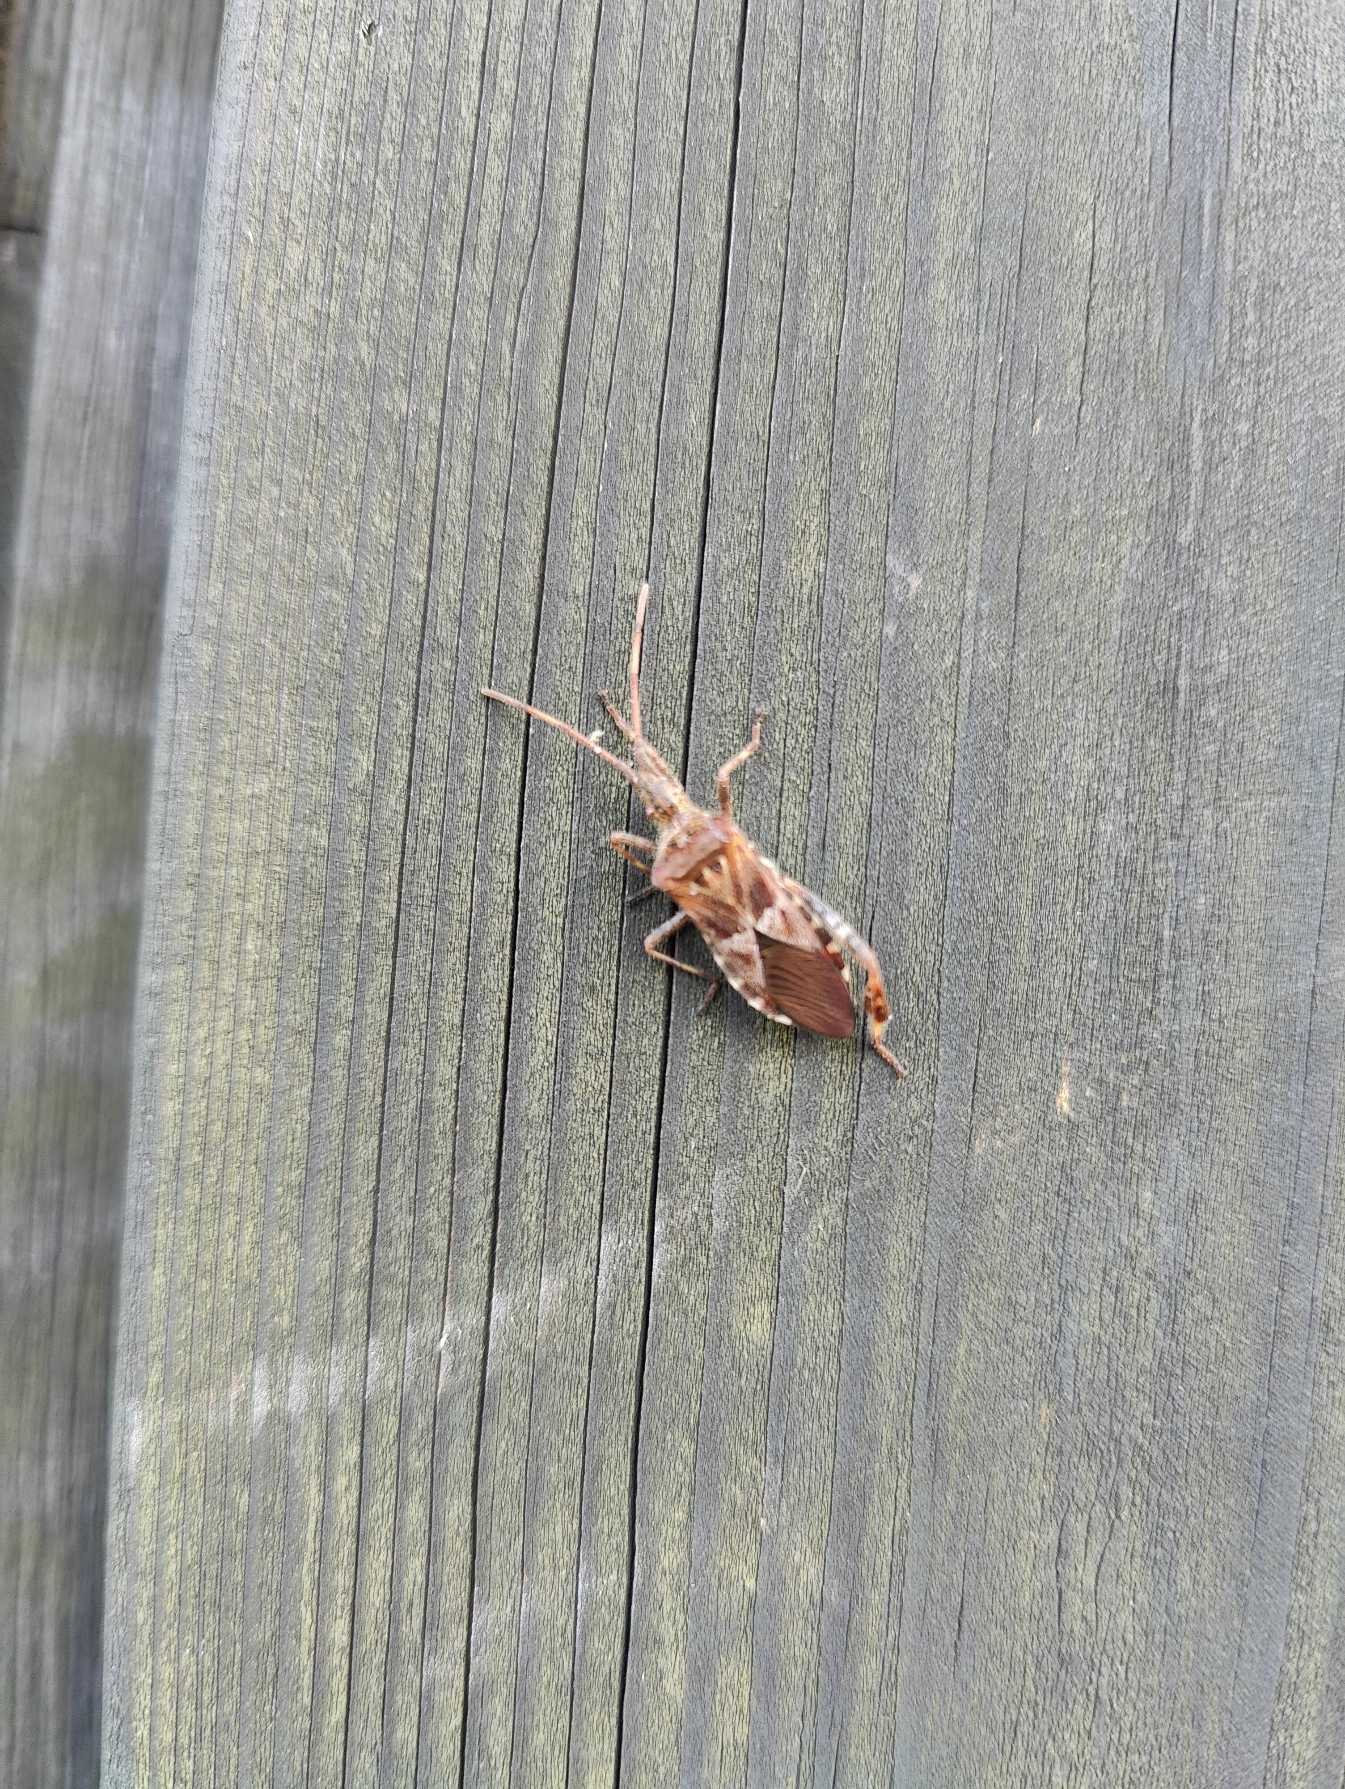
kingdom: Animalia
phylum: Arthropoda
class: Insecta
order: Hemiptera
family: Coreidae
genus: Leptoglossus
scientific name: Leptoglossus occidentalis
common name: Amerikansk fyrretæge
